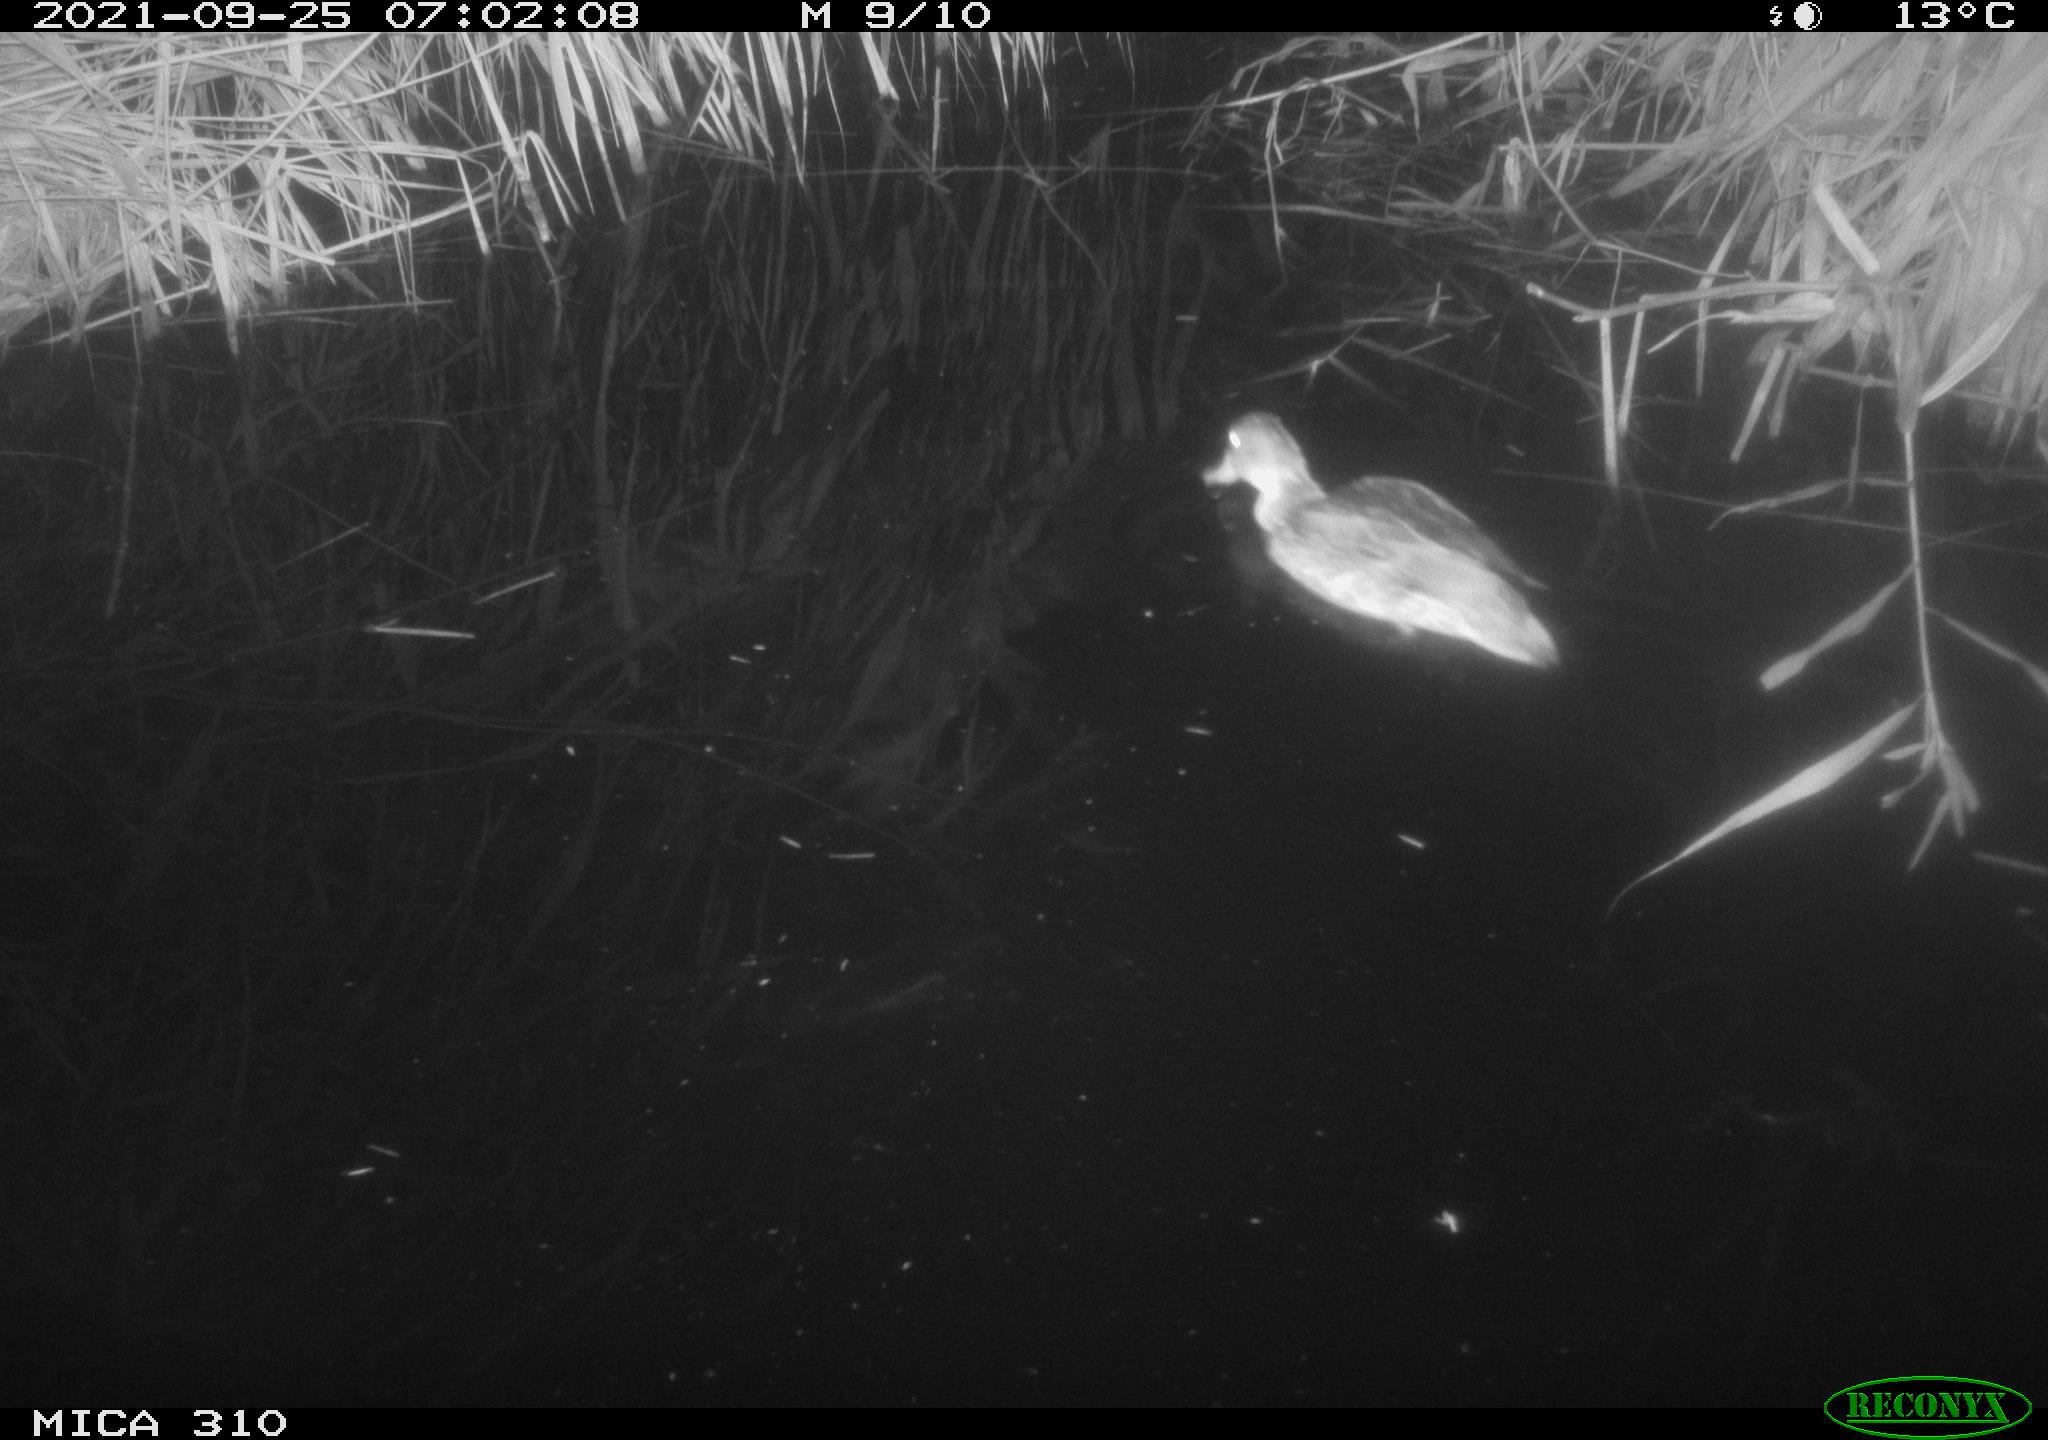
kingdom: Animalia
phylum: Chordata
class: Aves
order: Gruiformes
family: Rallidae
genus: Gallinula
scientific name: Gallinula chloropus
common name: Common moorhen
